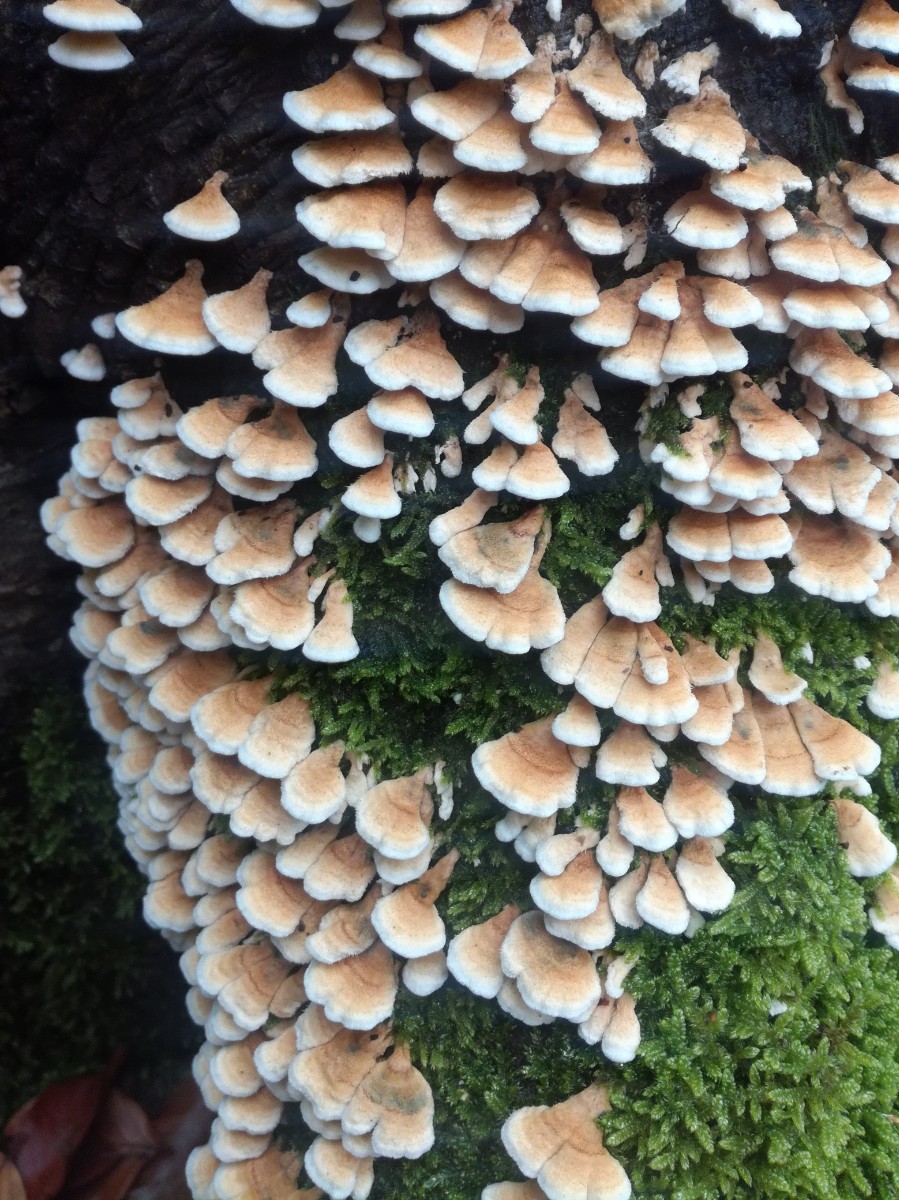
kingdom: Fungi
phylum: Basidiomycota
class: Agaricomycetes
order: Amylocorticiales
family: Amylocorticiaceae
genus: Plicaturopsis
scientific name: Plicaturopsis crispa
